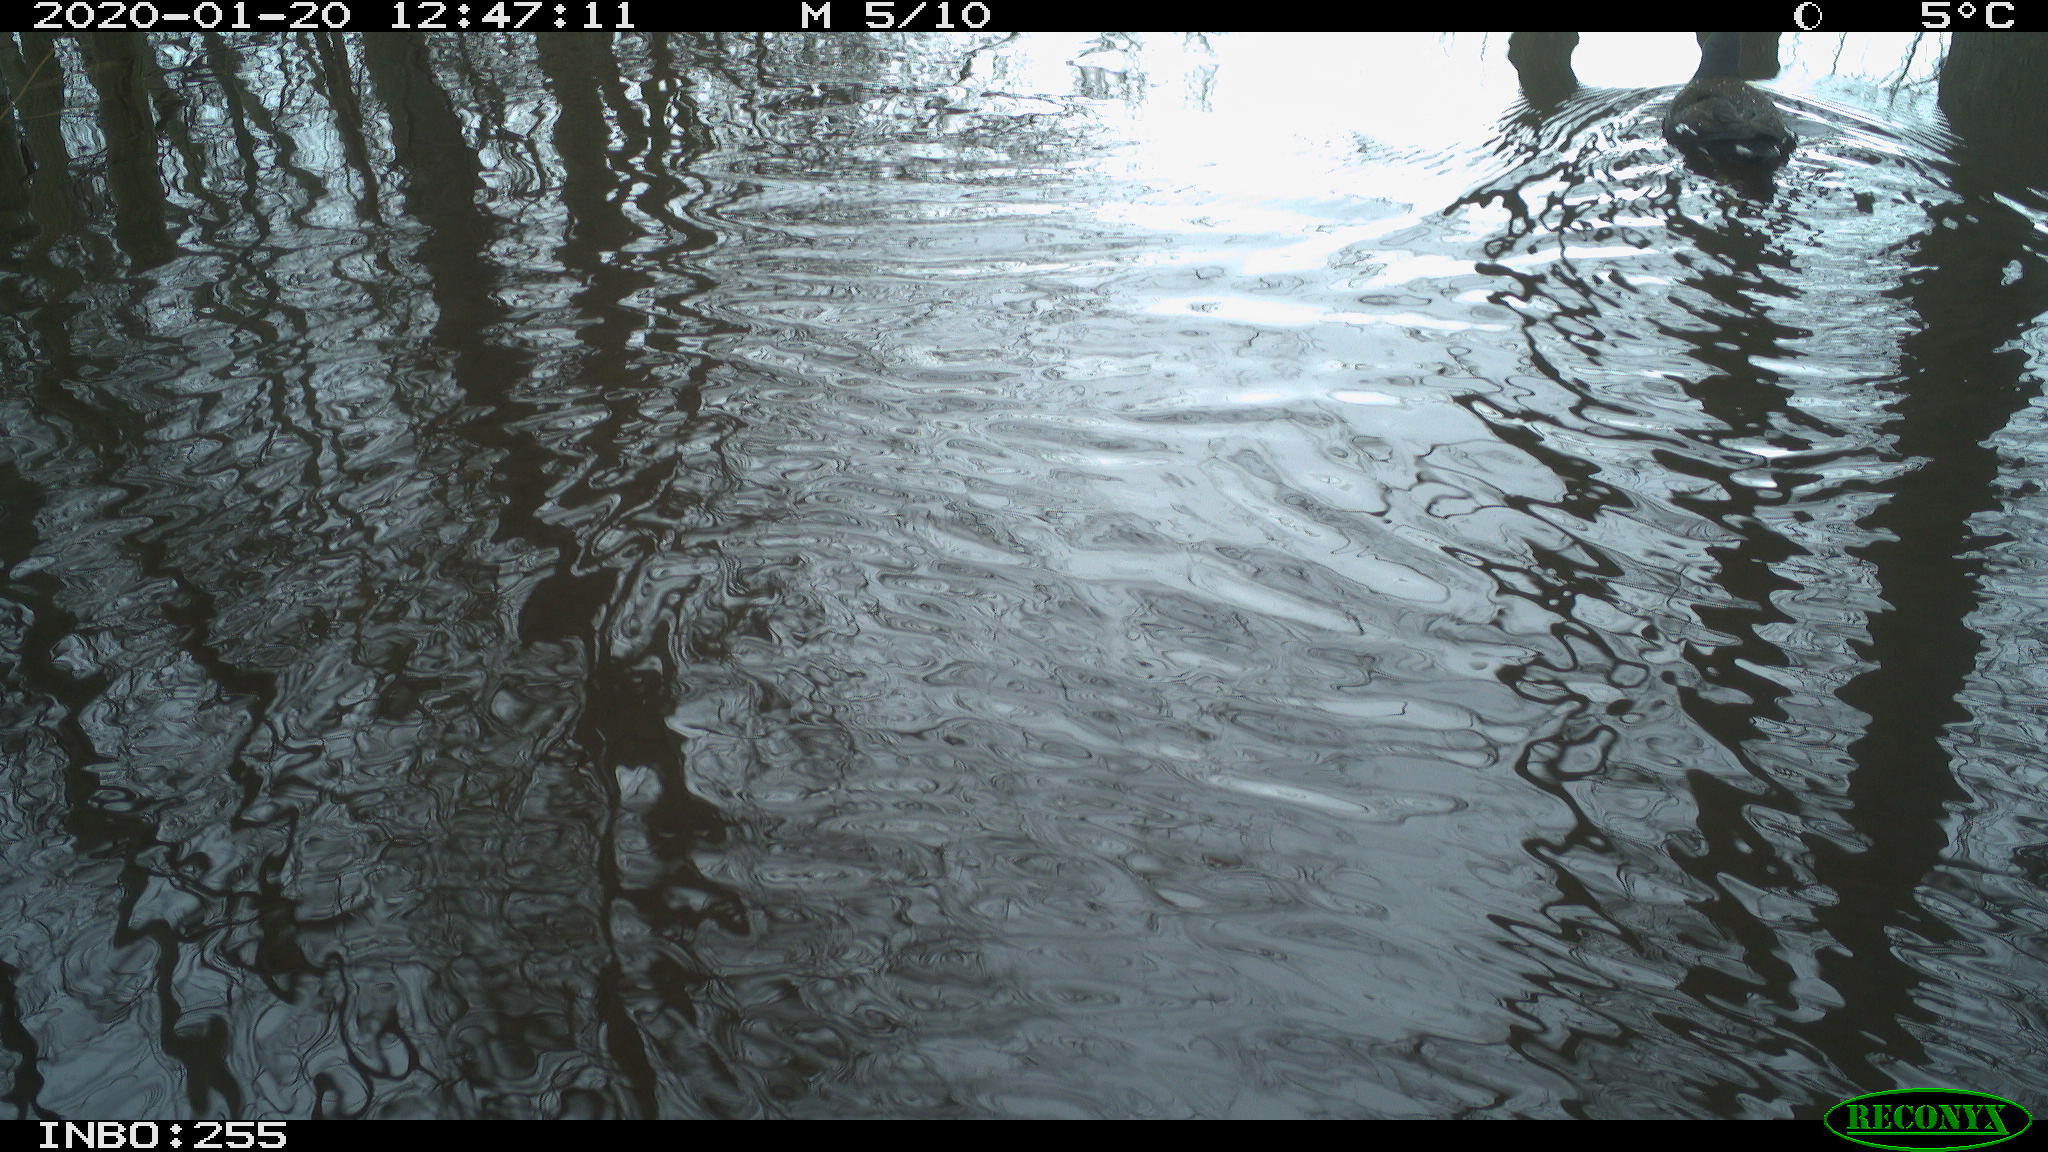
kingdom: Animalia
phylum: Chordata
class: Aves
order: Gruiformes
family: Rallidae
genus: Gallinula
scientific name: Gallinula chloropus
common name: Common moorhen
